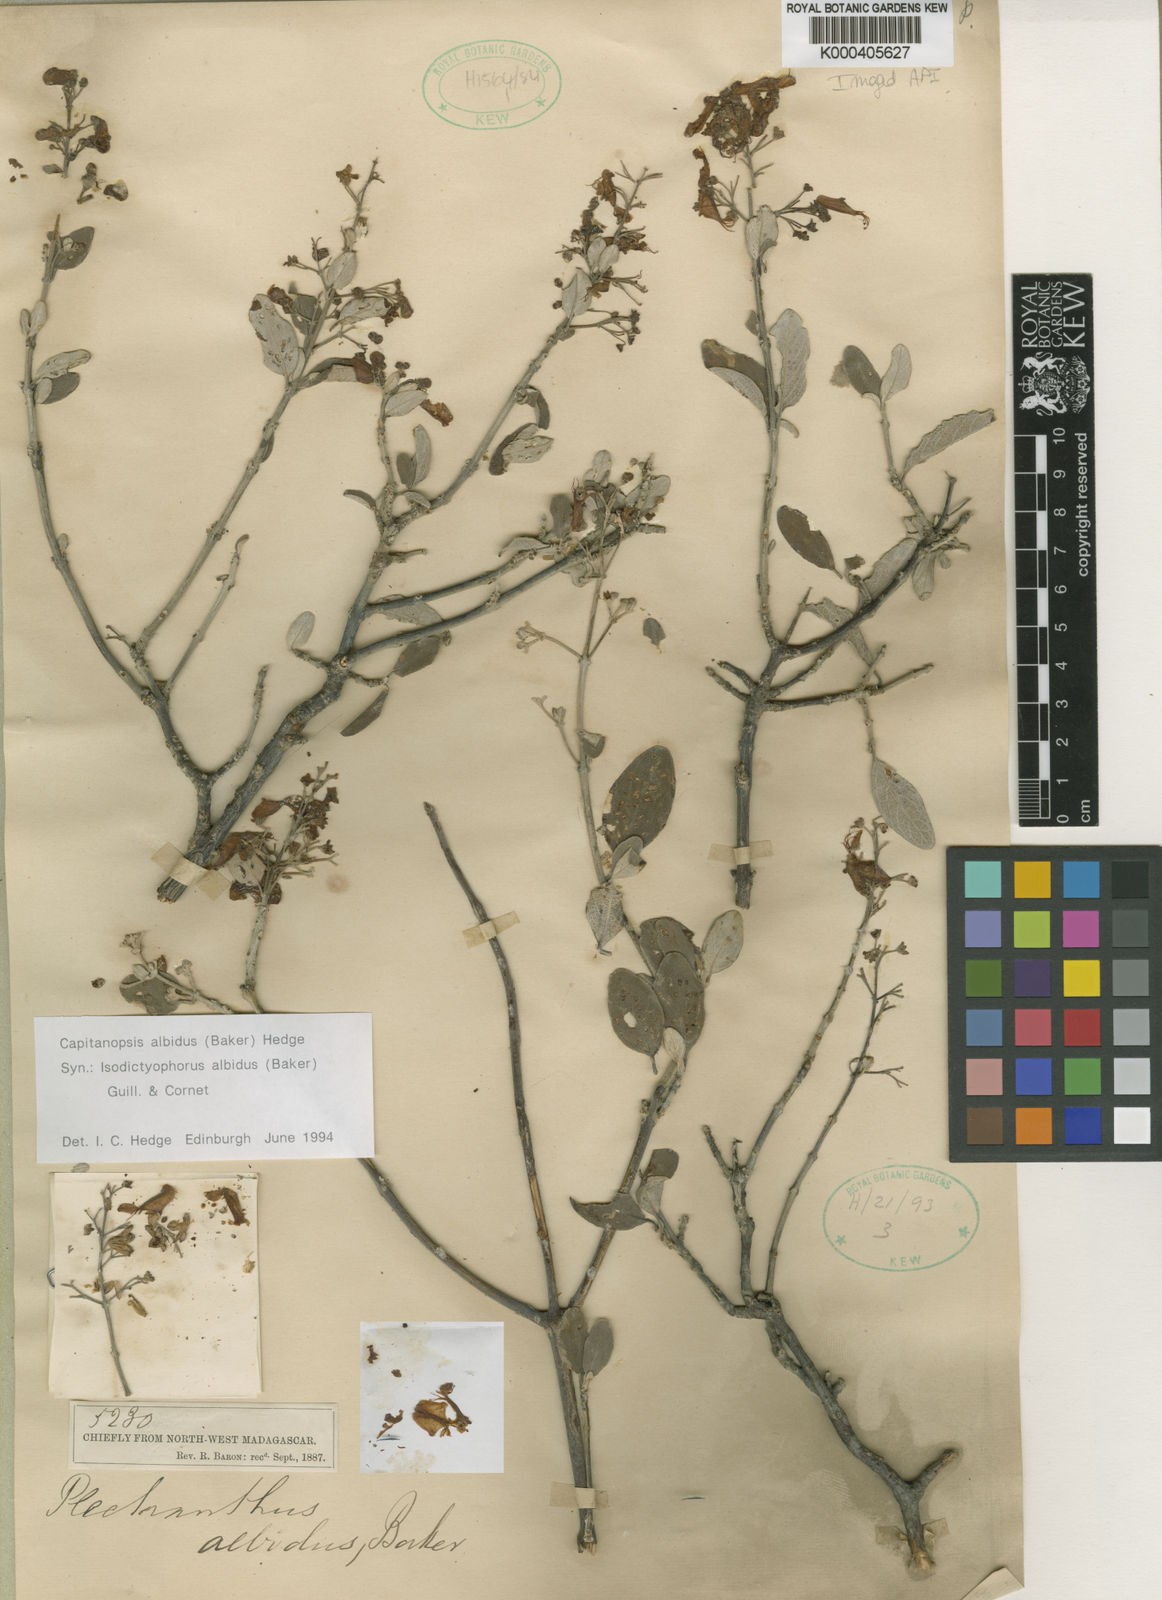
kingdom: Plantae
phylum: Tracheophyta
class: Magnoliopsida
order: Lamiales
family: Lamiaceae
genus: Capitanopsis
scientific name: Capitanopsis albida
